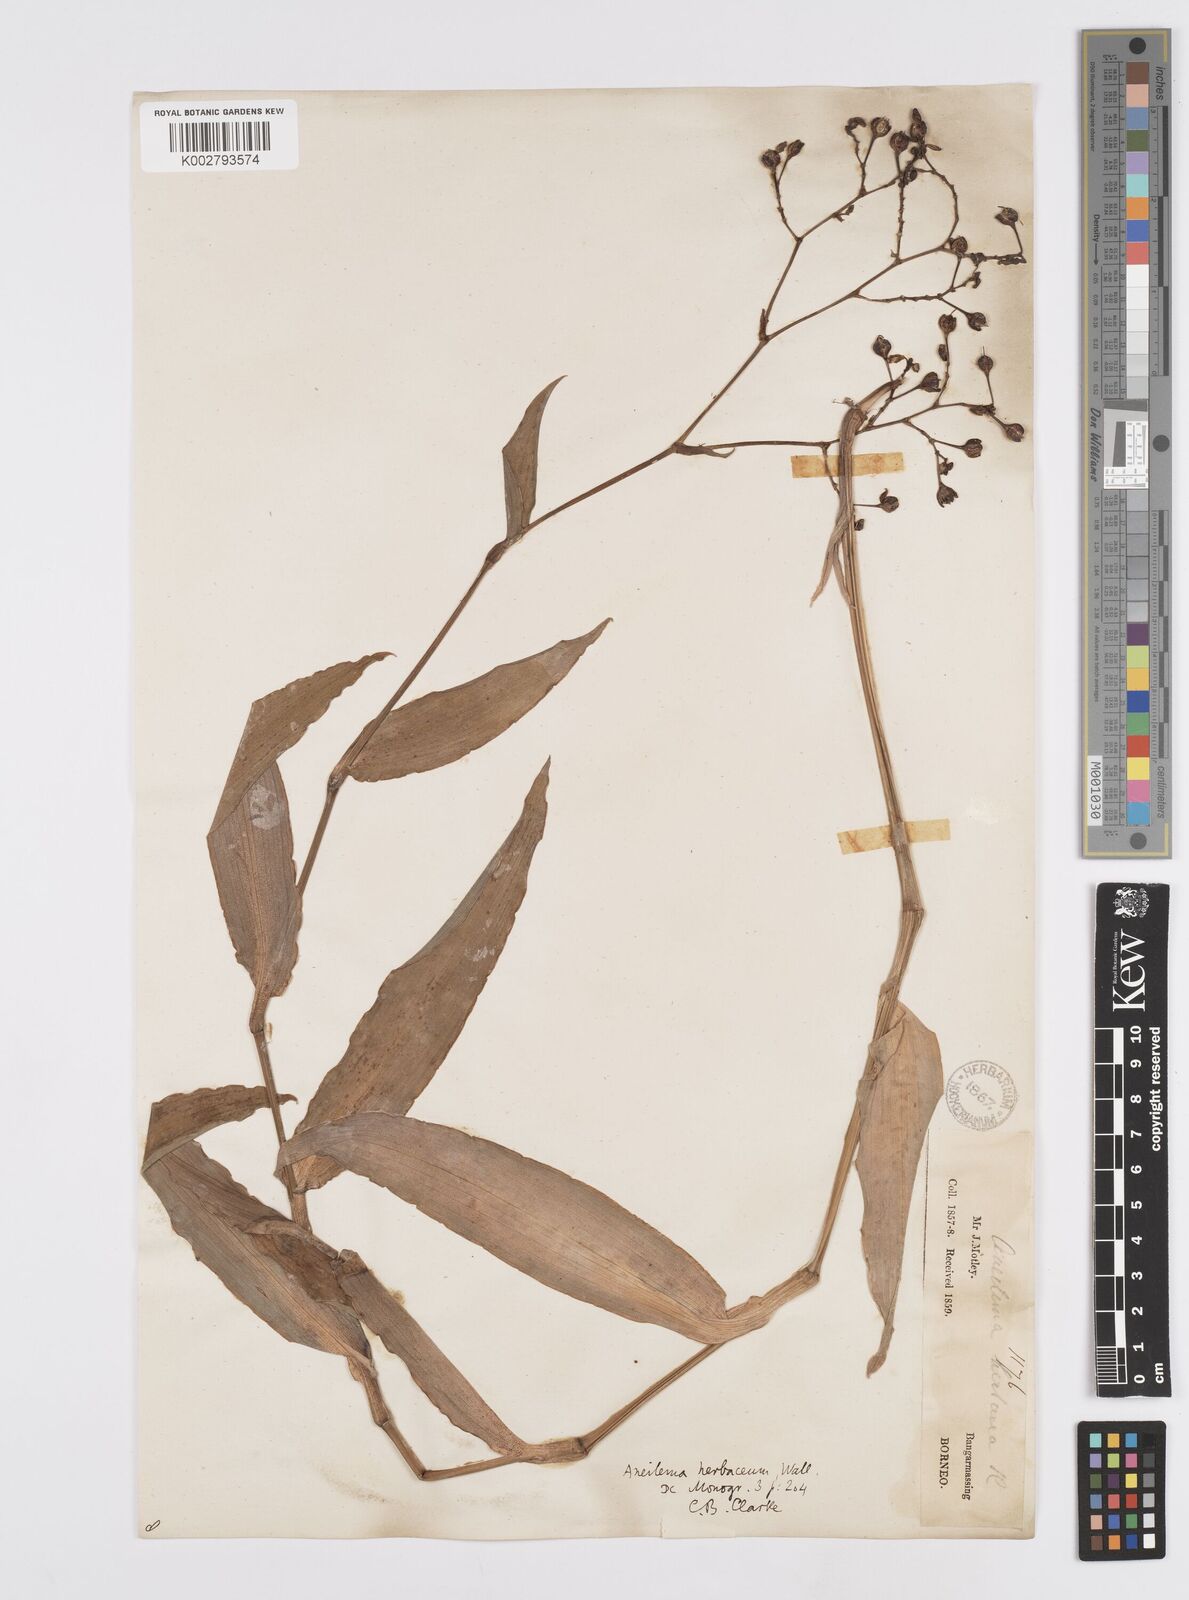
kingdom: Plantae
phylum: Tracheophyta
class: Liliopsida
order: Commelinales
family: Commelinaceae
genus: Murdannia
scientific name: Murdannia
